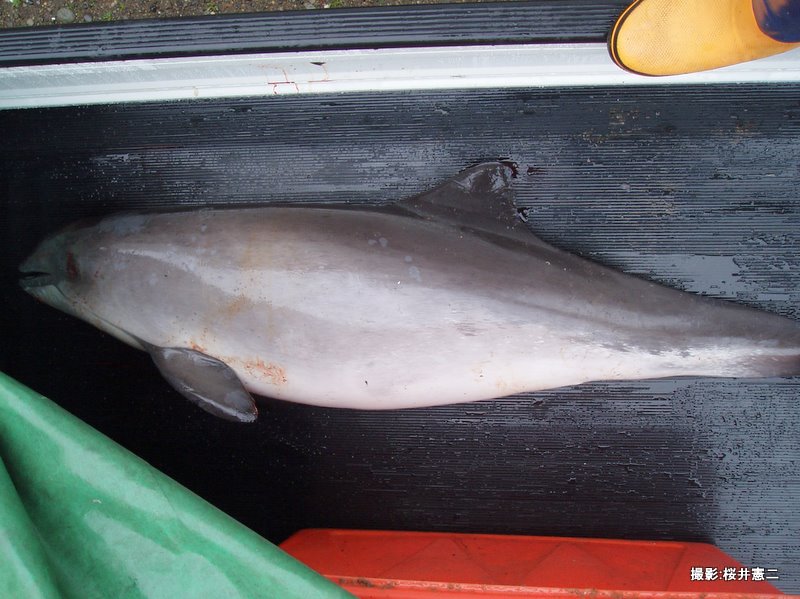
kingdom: Animalia
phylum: Chordata
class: Mammalia
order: Cetacea
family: Phocoenidae
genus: Phocoena
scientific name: Phocoena phocoena
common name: Harbour porpoise
